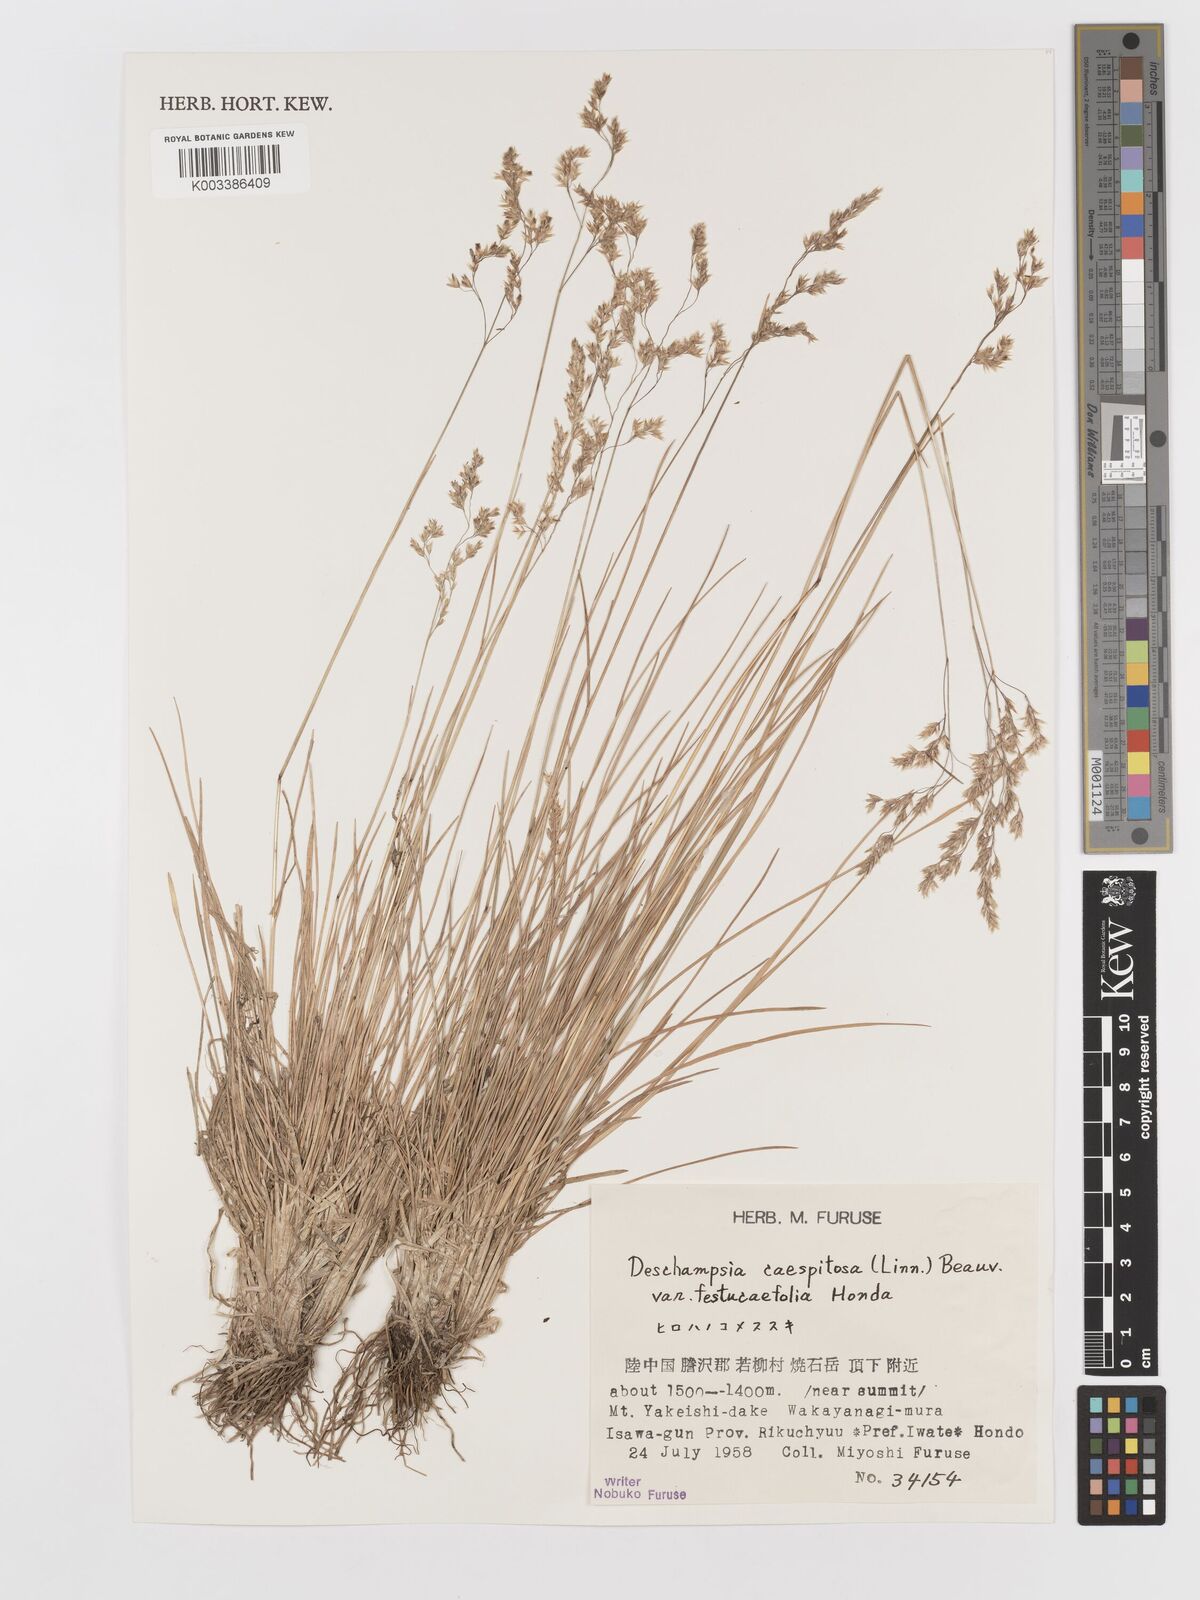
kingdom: Plantae
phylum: Tracheophyta
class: Liliopsida
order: Poales
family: Poaceae
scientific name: Poaceae
